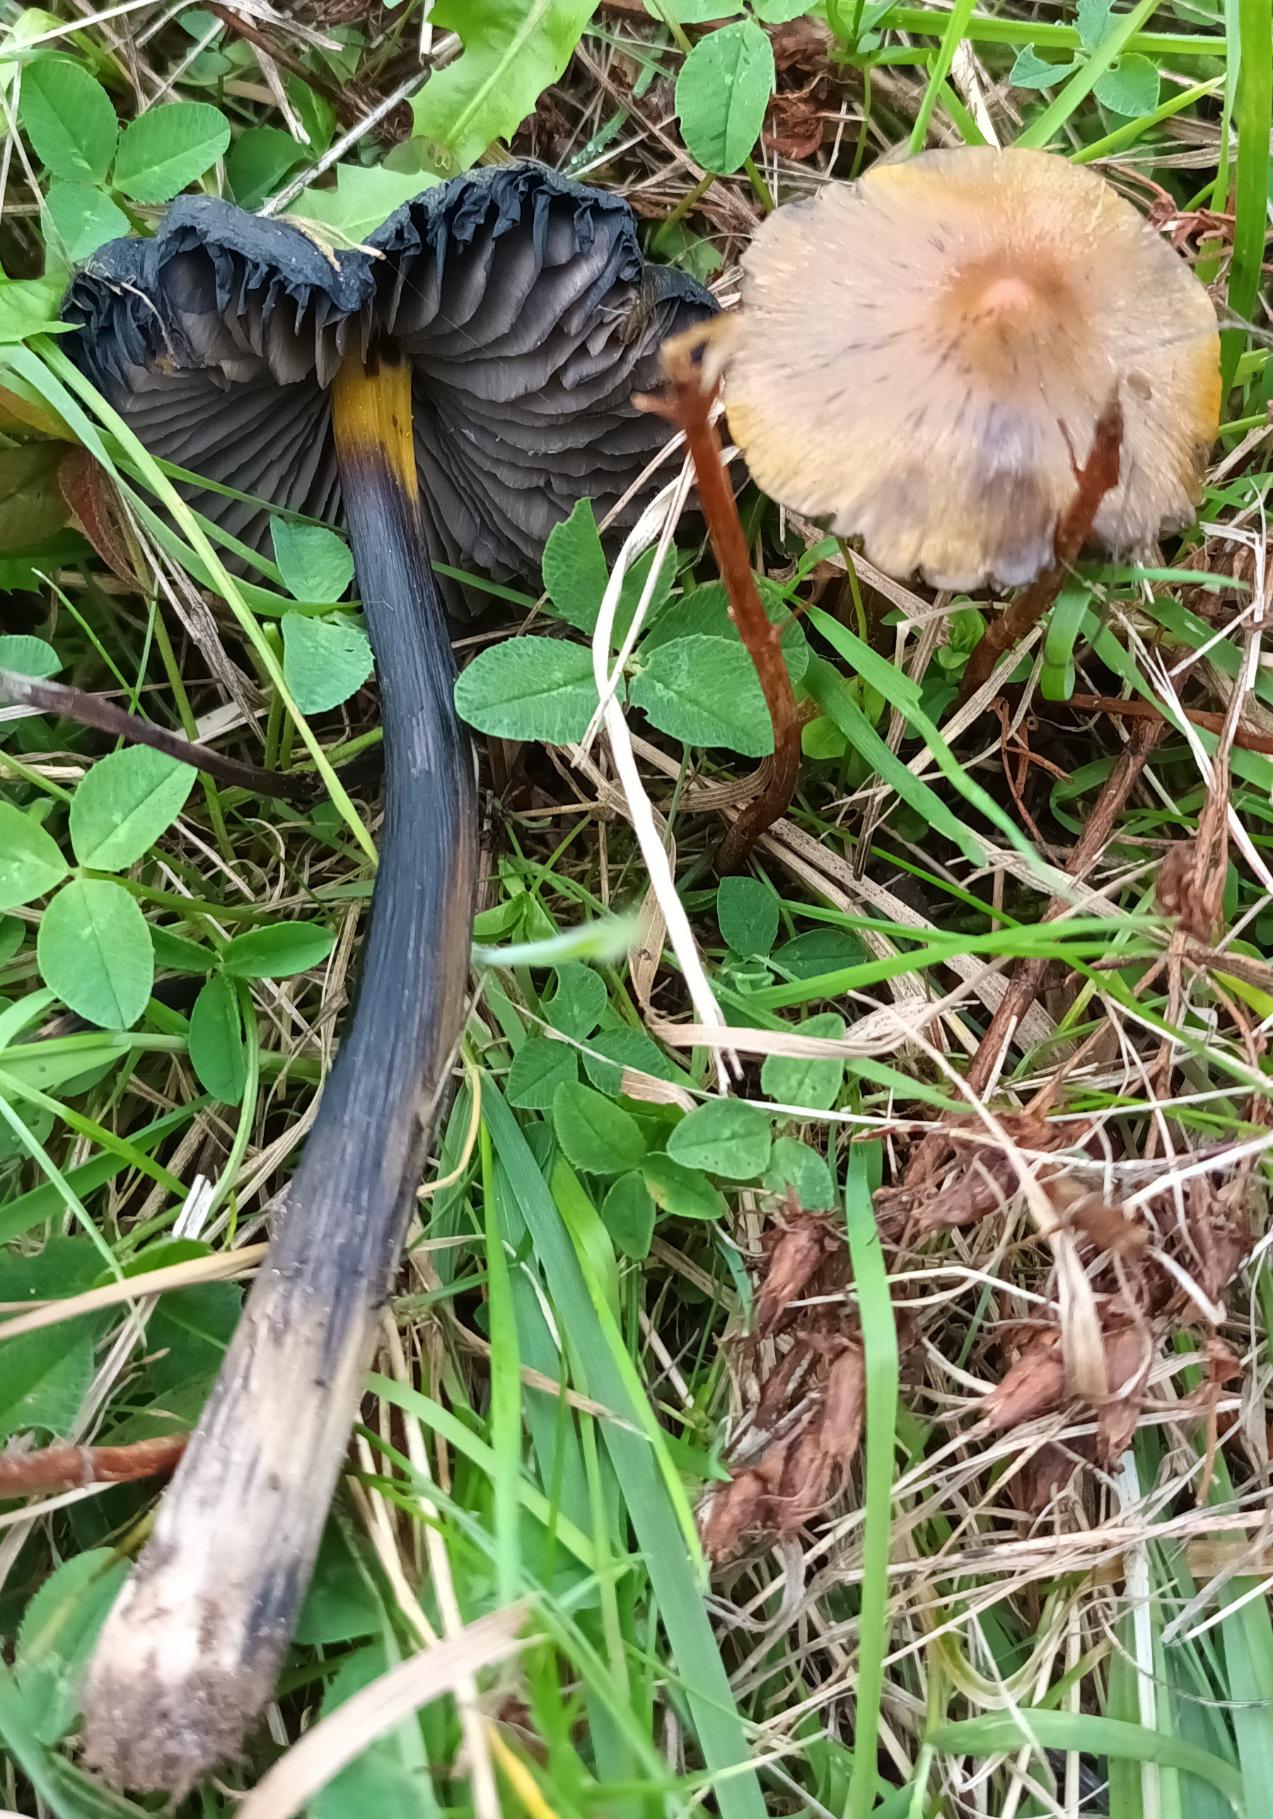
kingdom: Fungi
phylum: Basidiomycota
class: Agaricomycetes
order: Agaricales
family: Hygrophoraceae
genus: Hygrocybe
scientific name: Hygrocybe conica
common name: Kegle-vokshat
